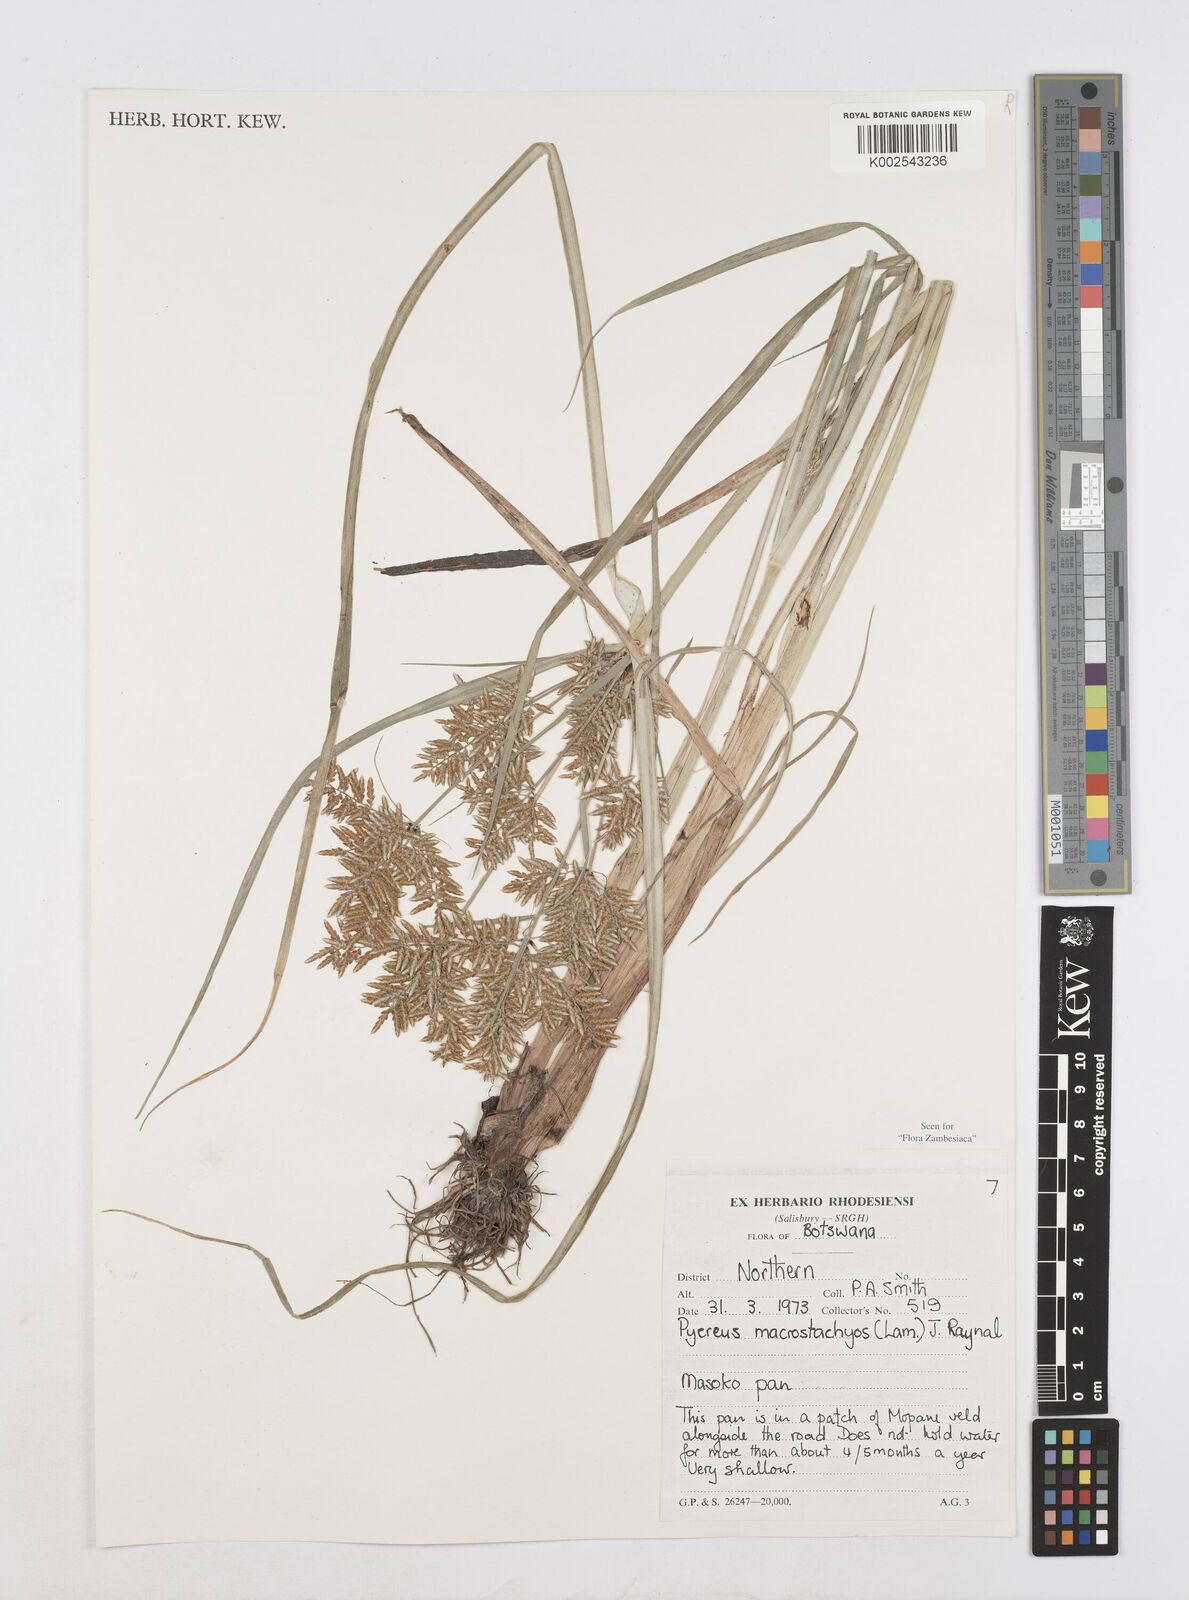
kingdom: Plantae
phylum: Tracheophyta
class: Liliopsida
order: Poales
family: Cyperaceae
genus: Cyperus
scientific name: Cyperus macrostachyos
